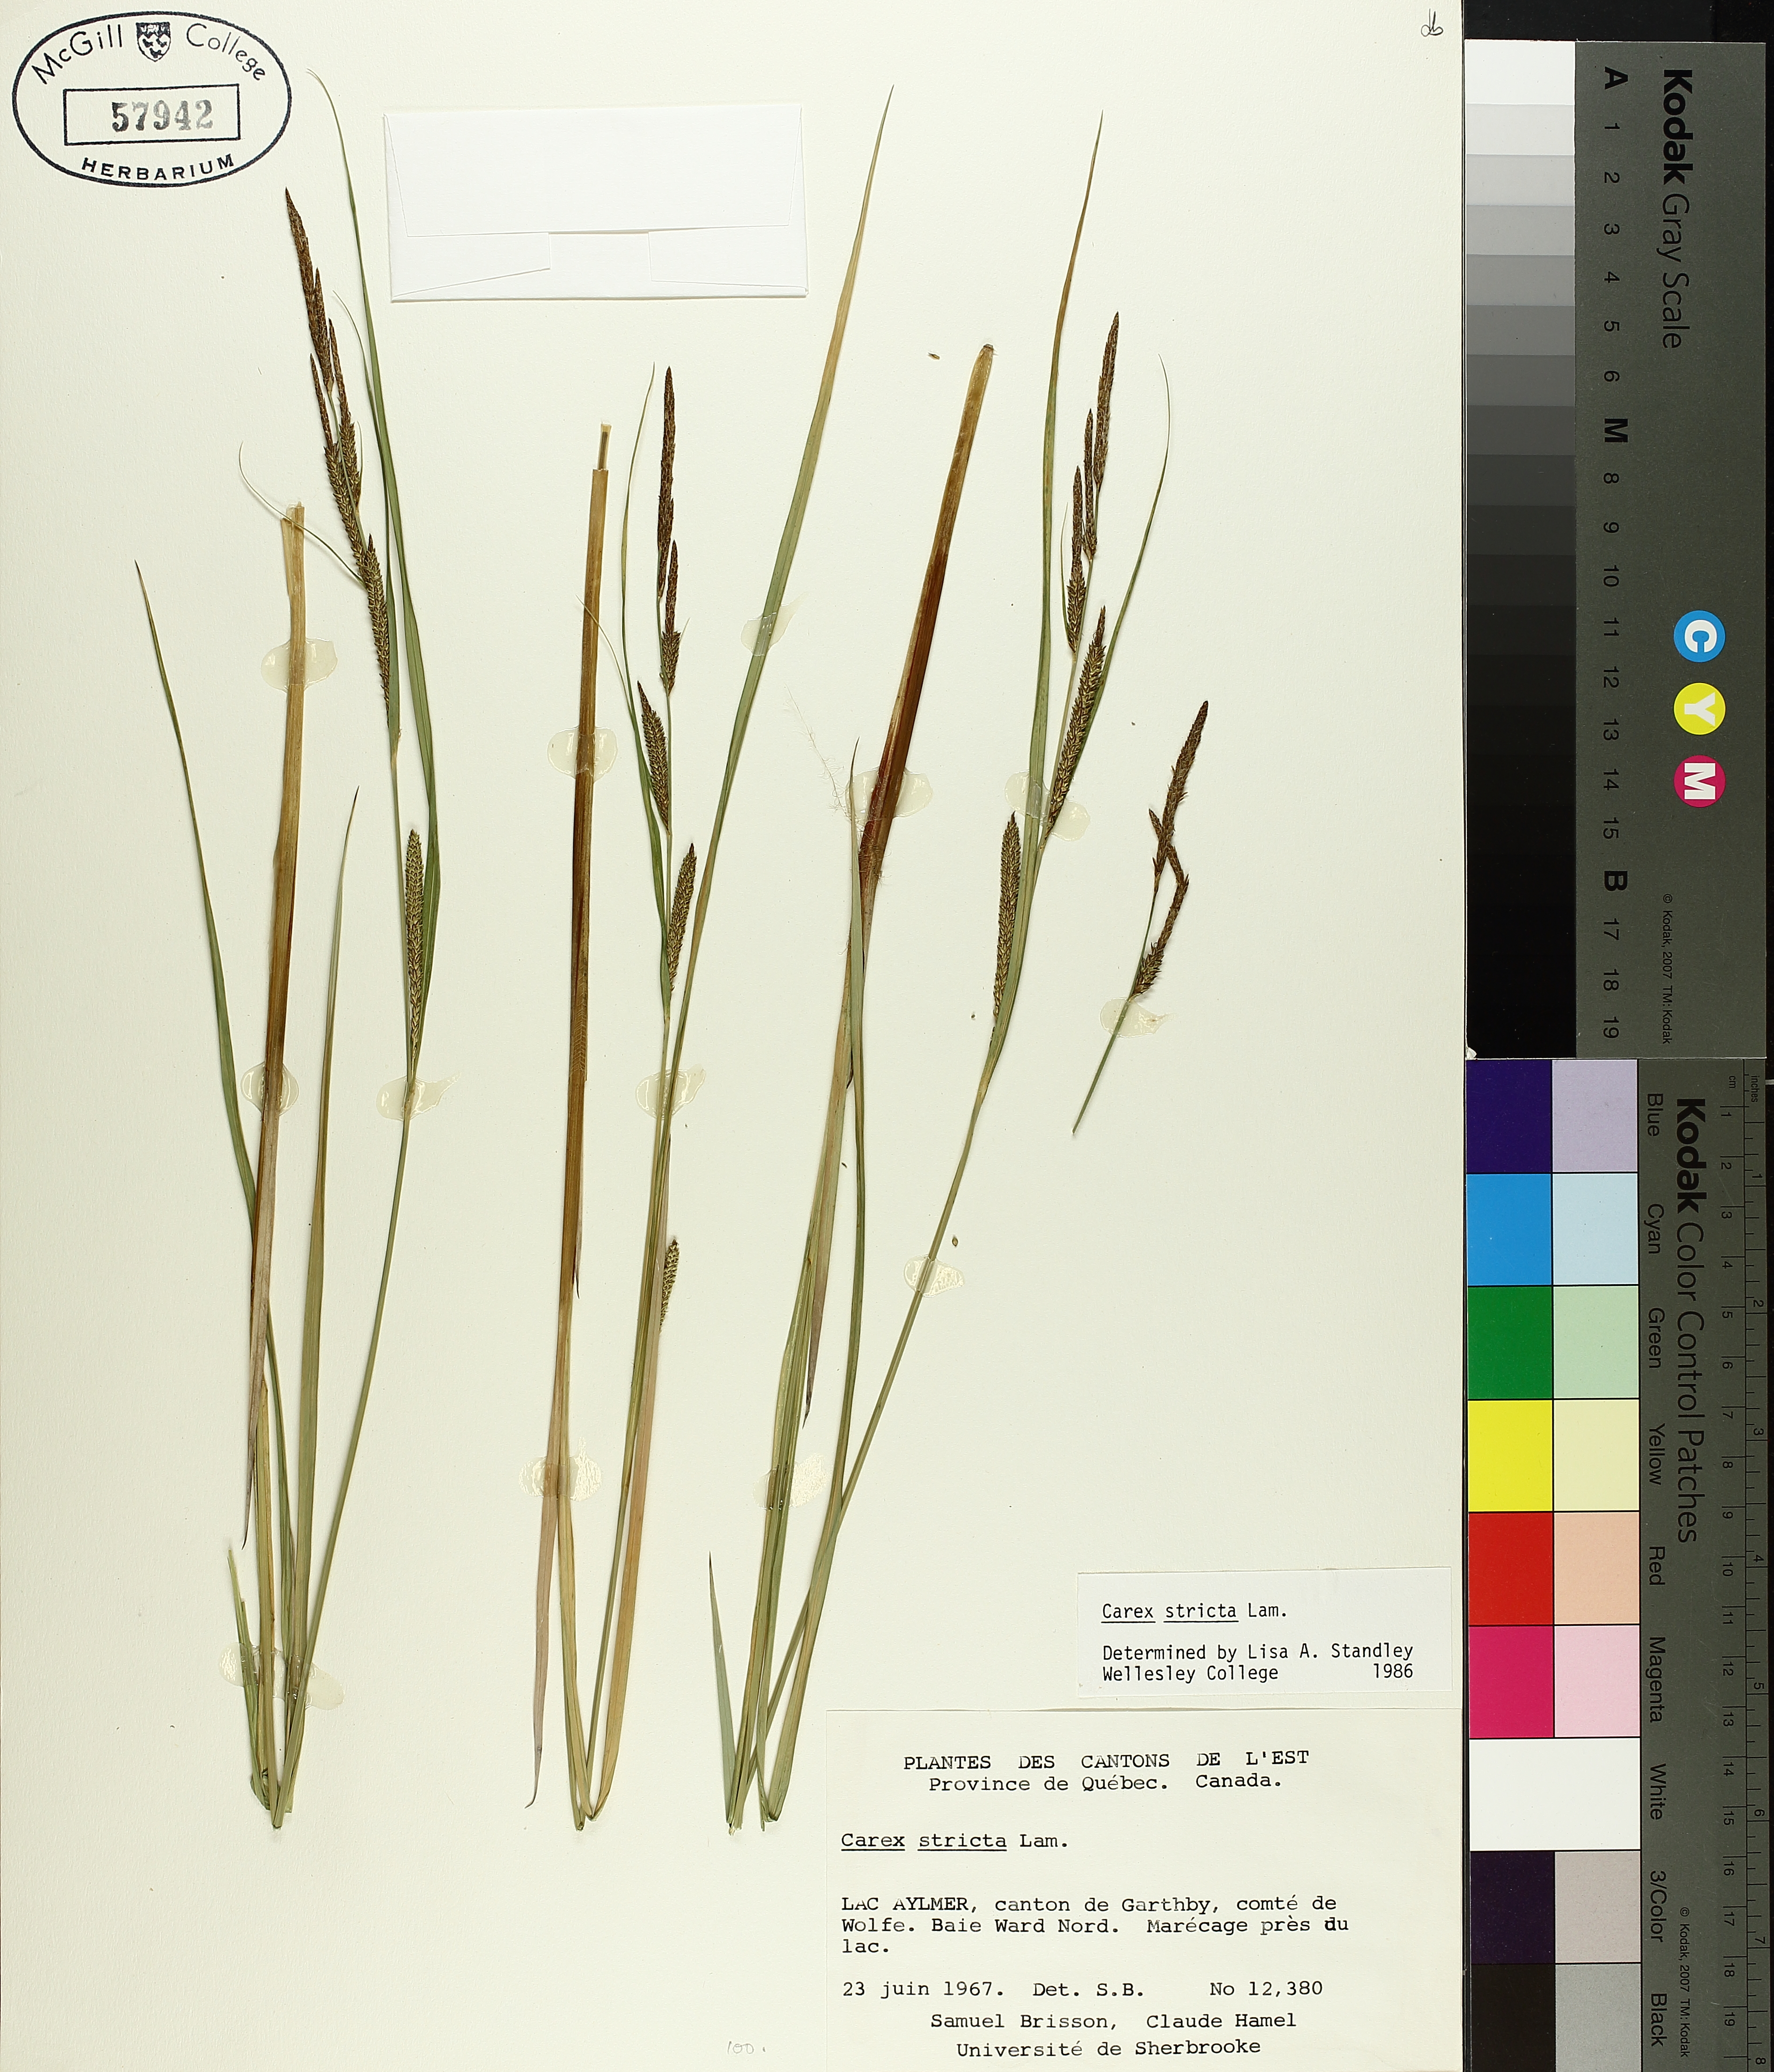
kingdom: Plantae
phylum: Tracheophyta
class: Liliopsida
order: Poales
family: Cyperaceae
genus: Carex
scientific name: Carex stricta
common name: Hummock sedge
